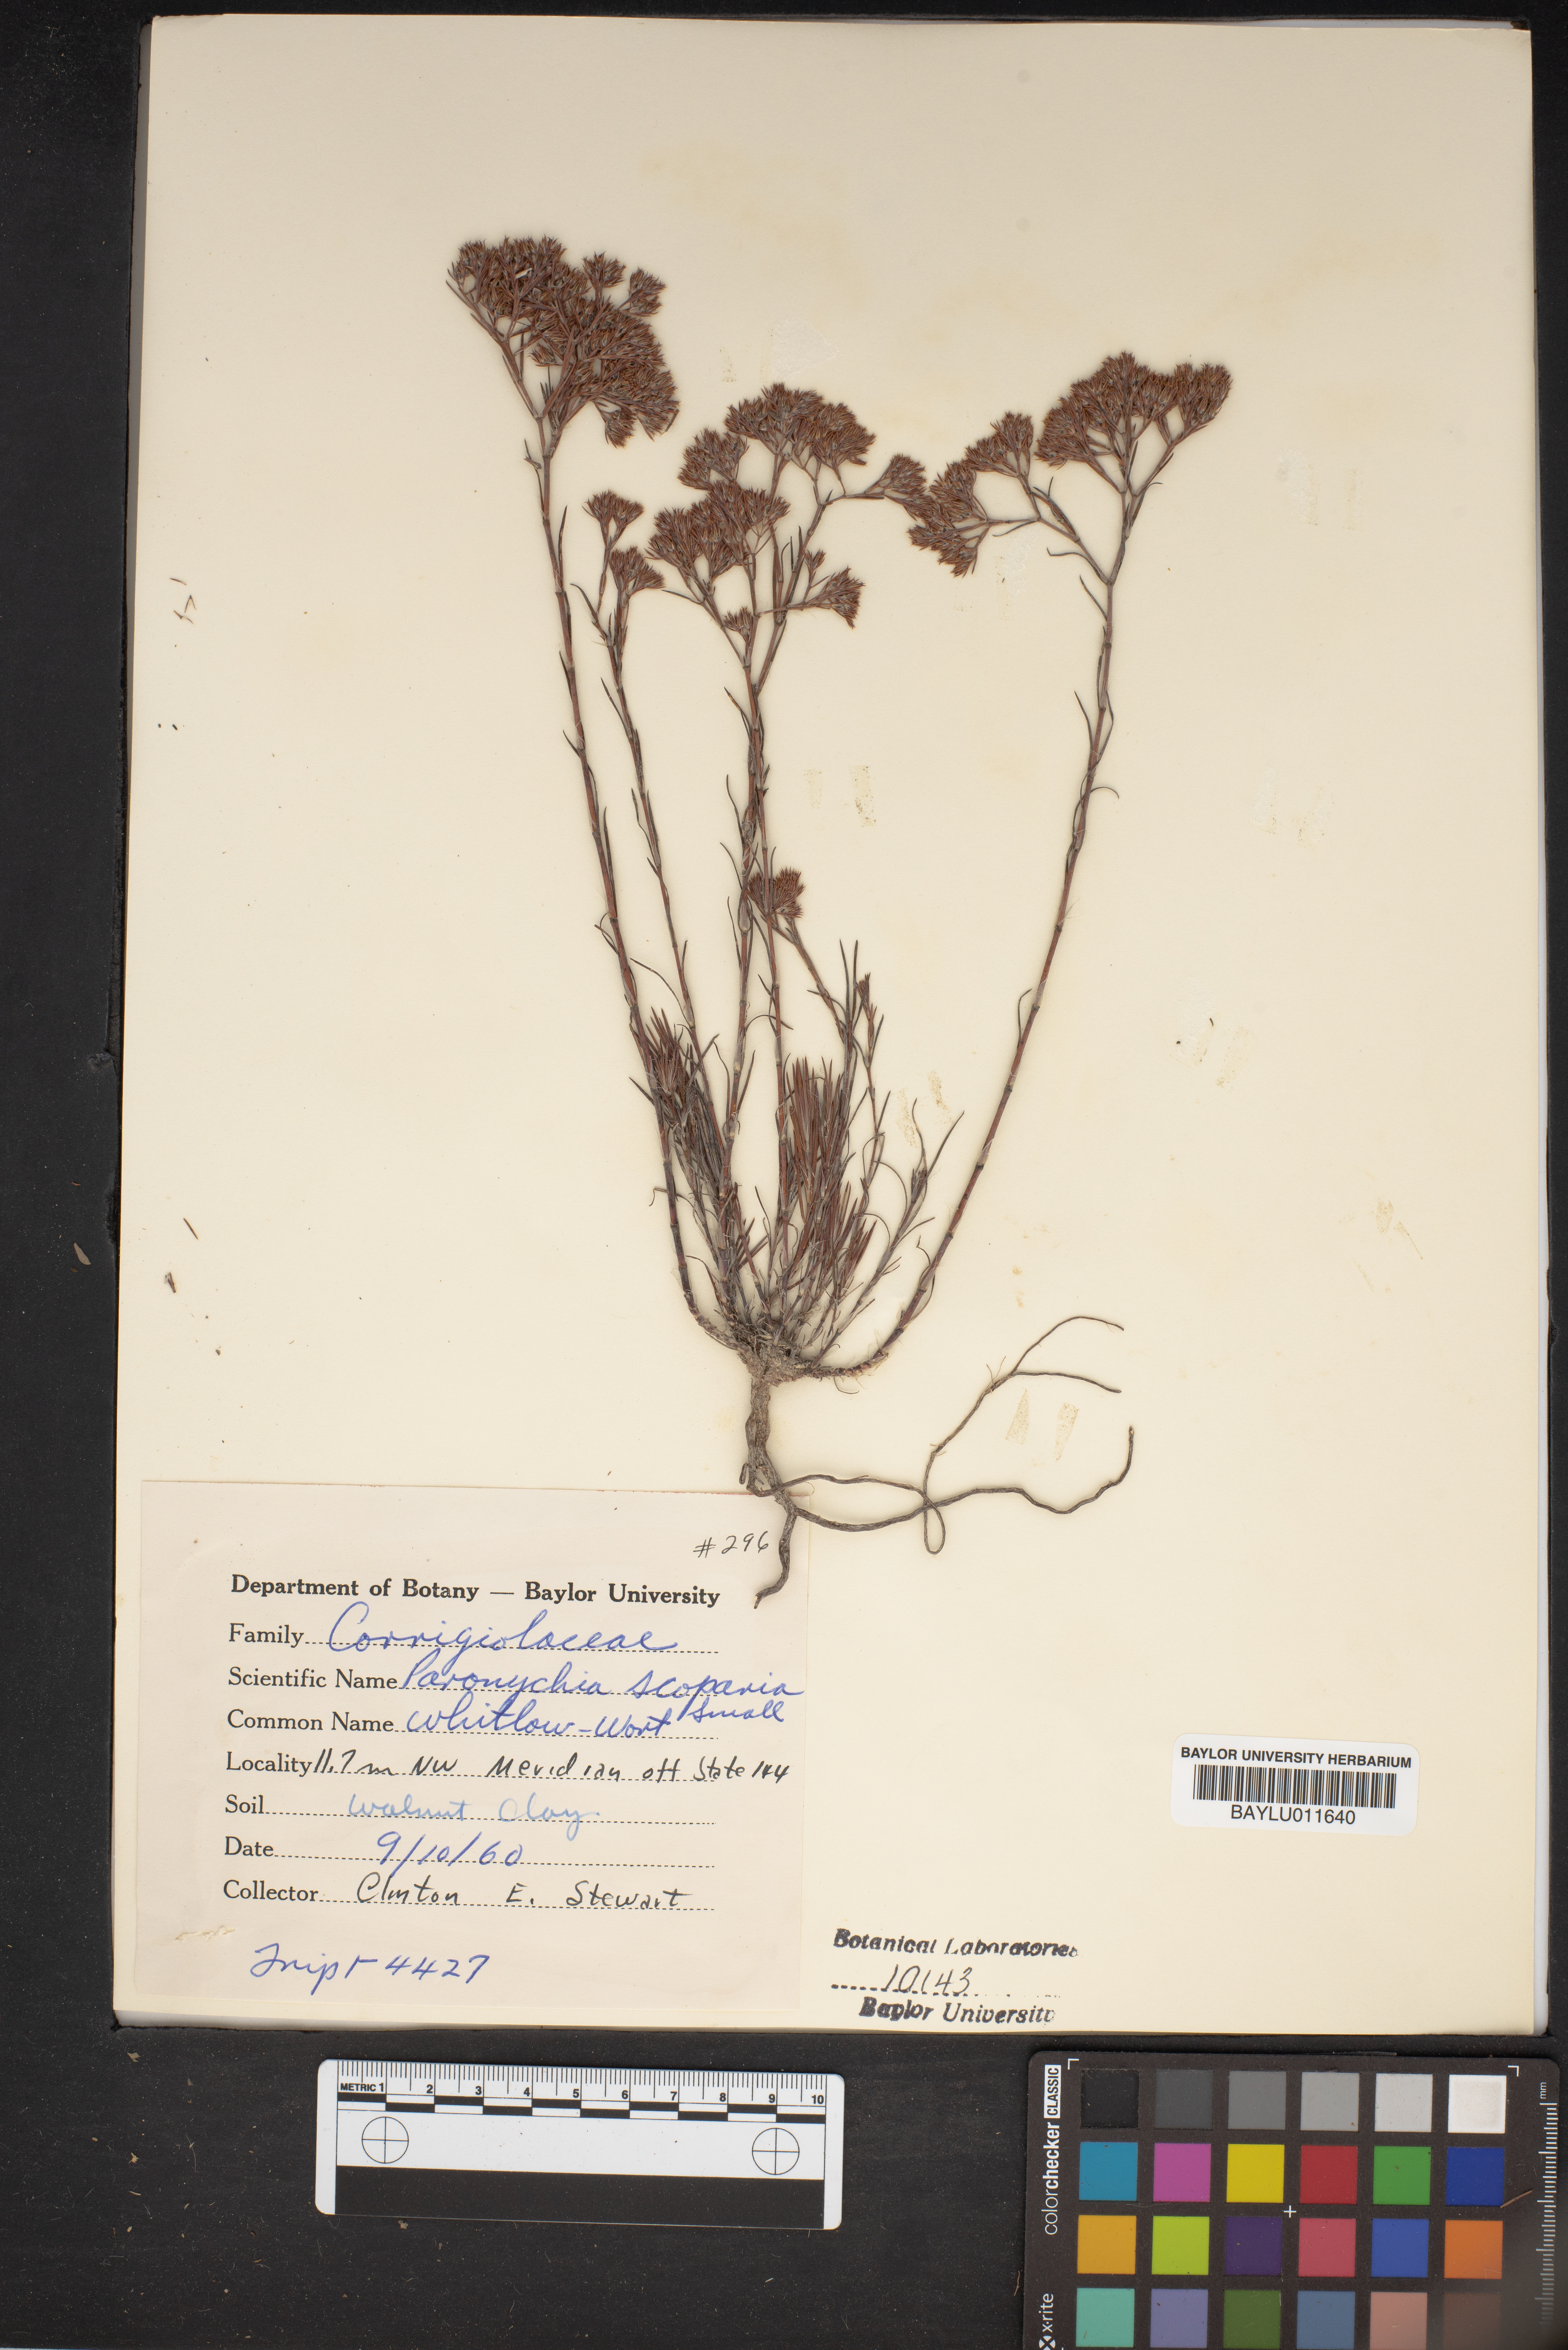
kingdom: Plantae
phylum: Tracheophyta
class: Magnoliopsida
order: Caryophyllales
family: Caryophyllaceae
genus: Paronychia
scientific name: Paronychia virginica
